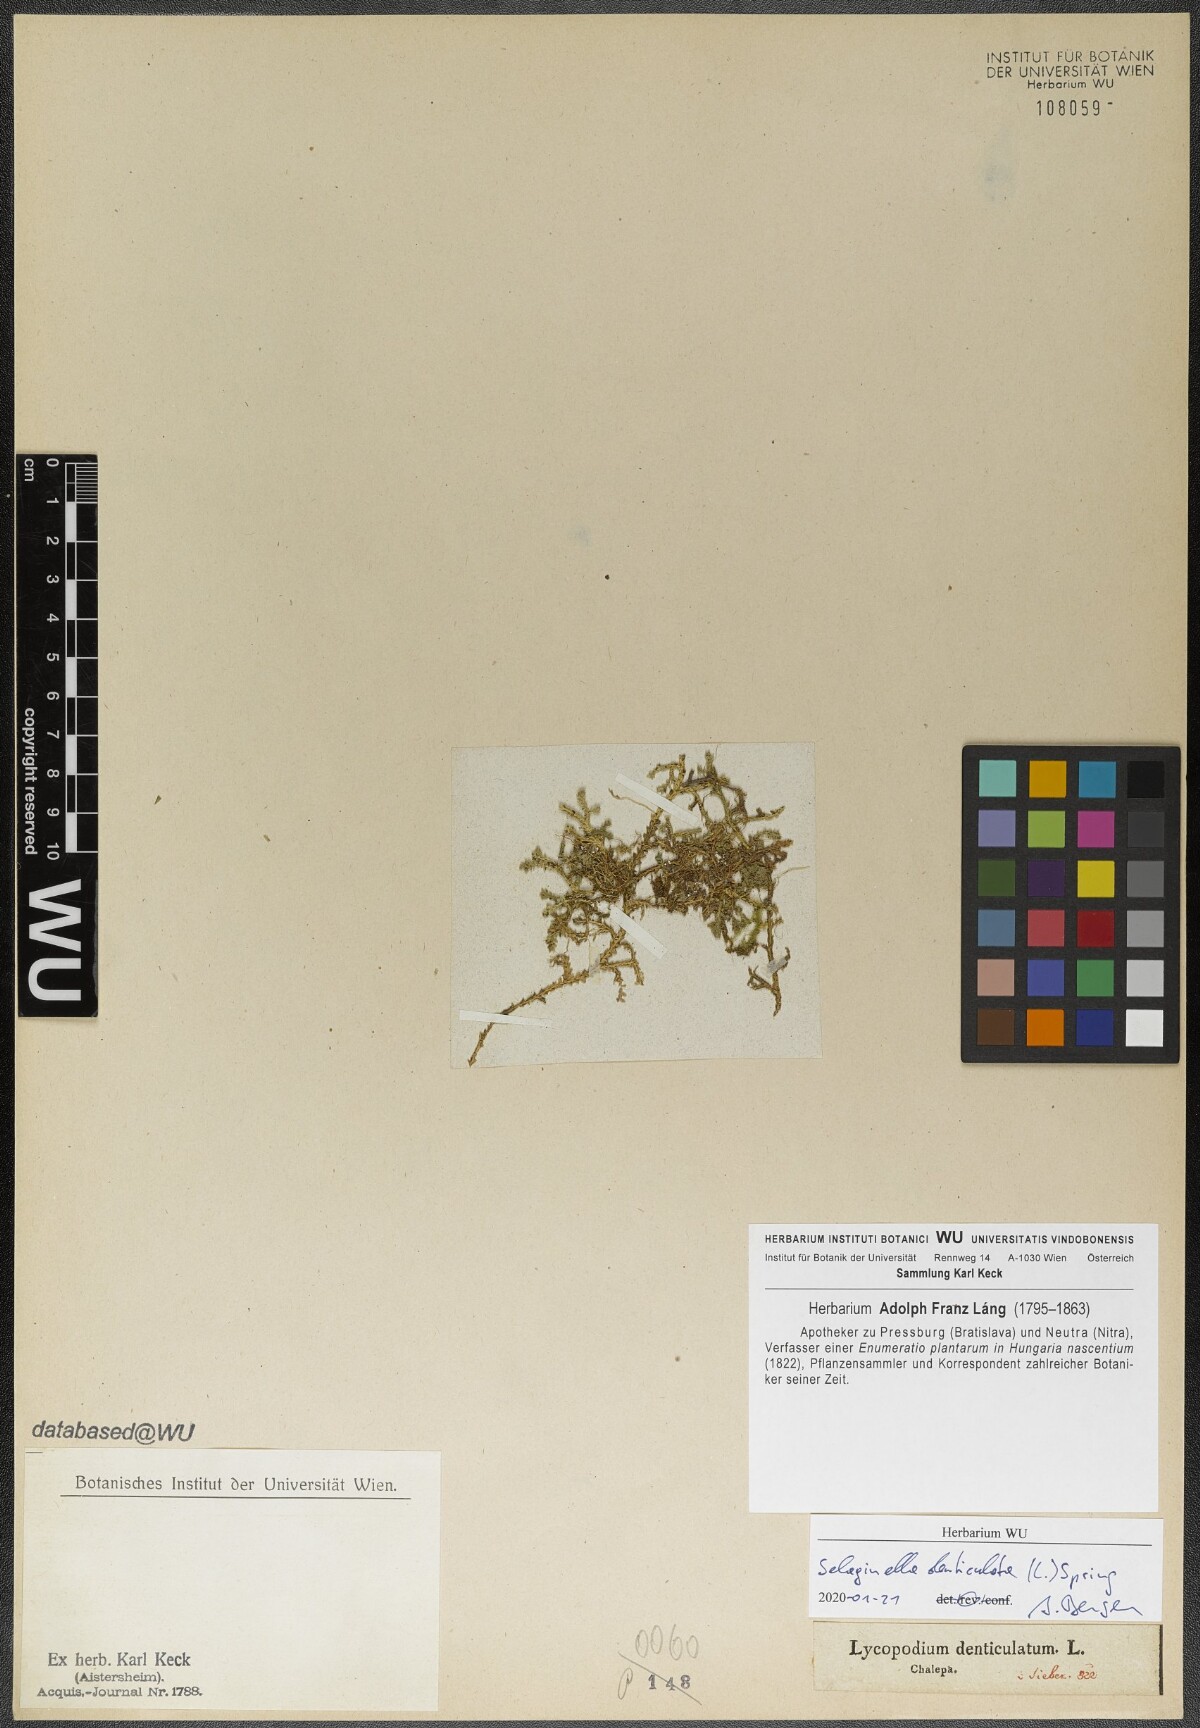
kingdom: Plantae
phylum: Tracheophyta
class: Lycopodiopsida
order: Selaginellales
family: Selaginellaceae
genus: Selaginella
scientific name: Selaginella denticulata
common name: Toothed-leaved clubmoss
